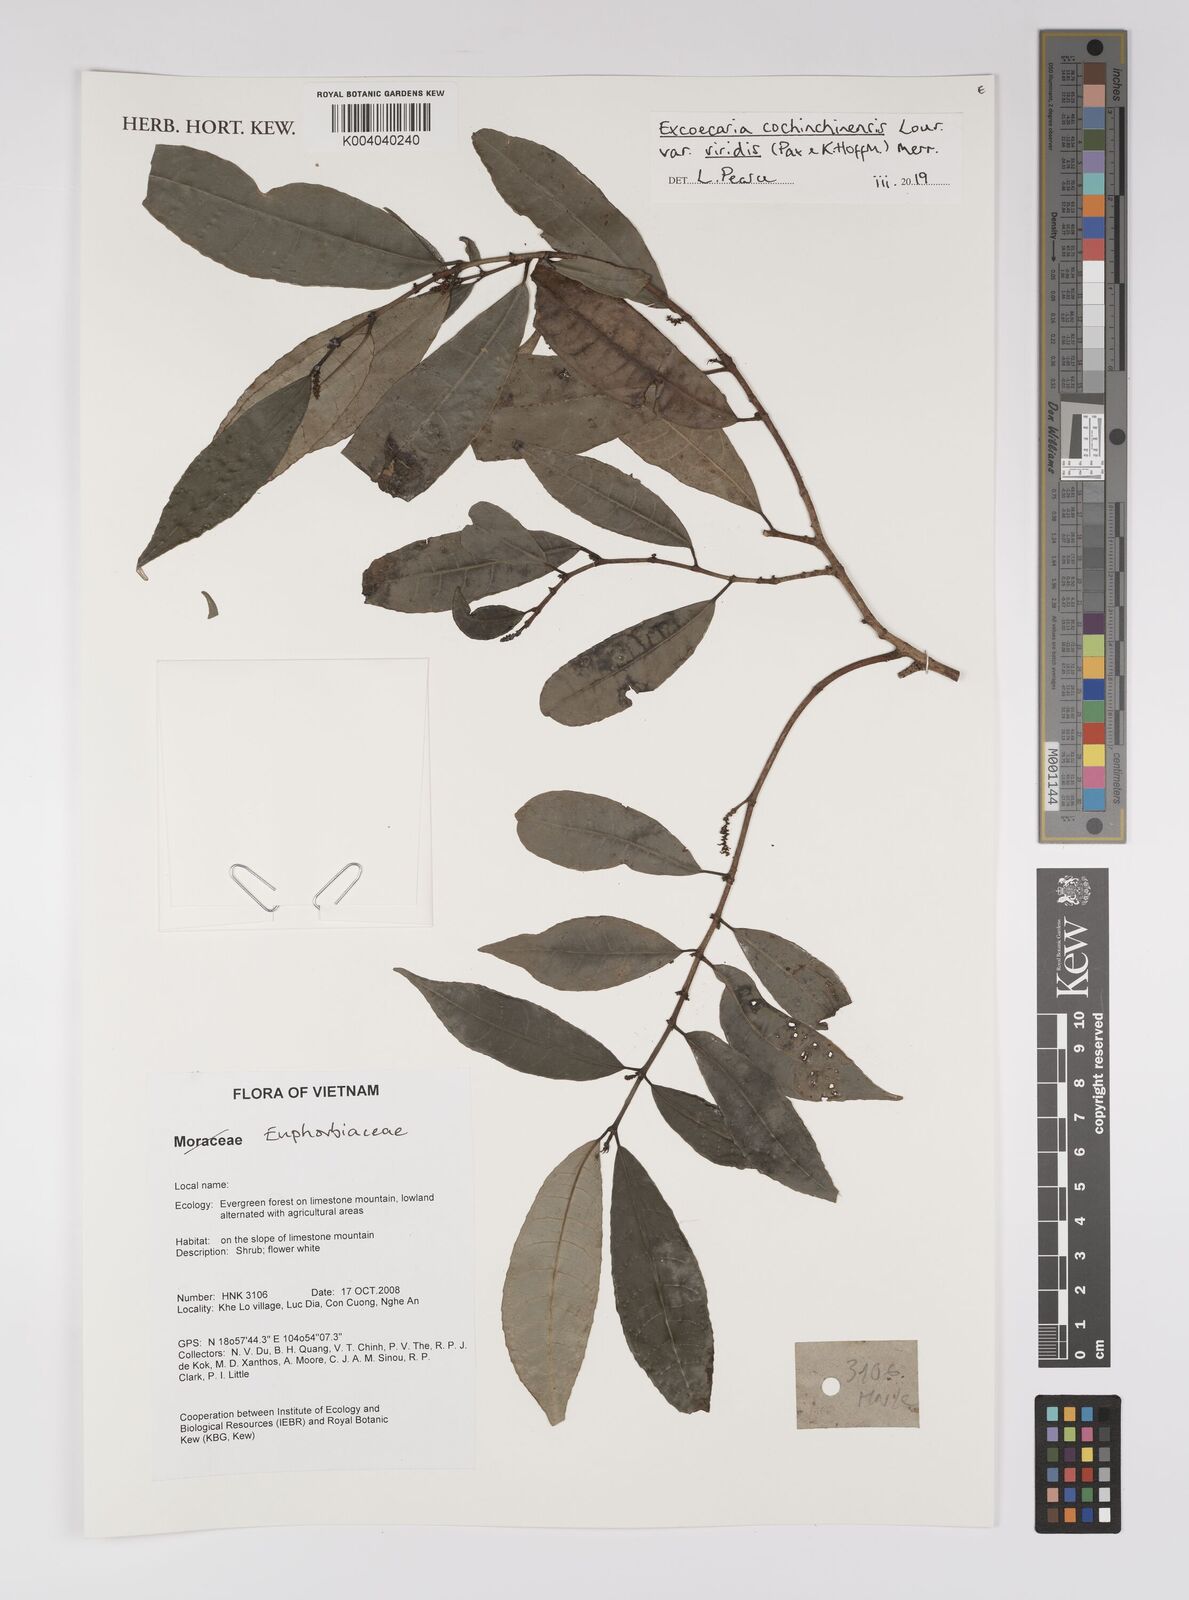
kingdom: Plantae
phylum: Tracheophyta
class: Magnoliopsida
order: Malpighiales
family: Euphorbiaceae
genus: Excoecaria
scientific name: Excoecaria cochinchinensis
